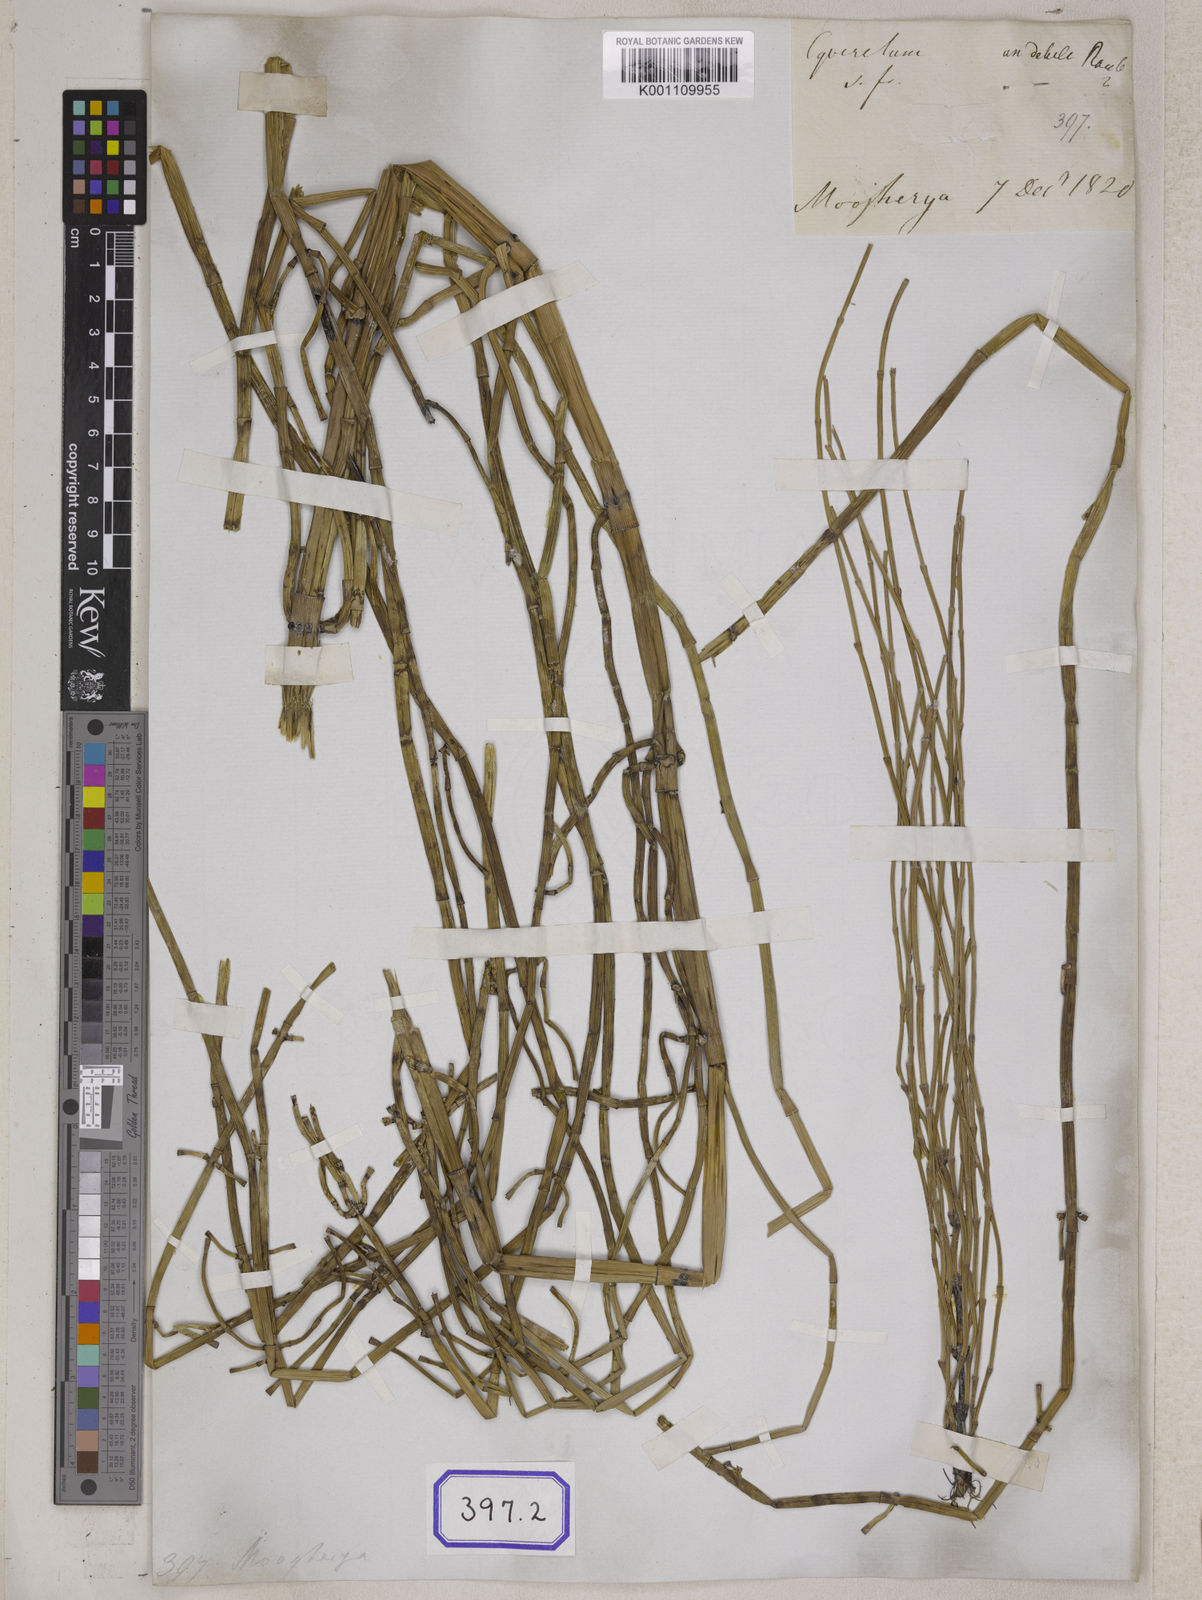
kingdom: Plantae
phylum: Tracheophyta
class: Polypodiopsida
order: Equisetales
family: Equisetaceae
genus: Equisetum
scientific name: Equisetum
